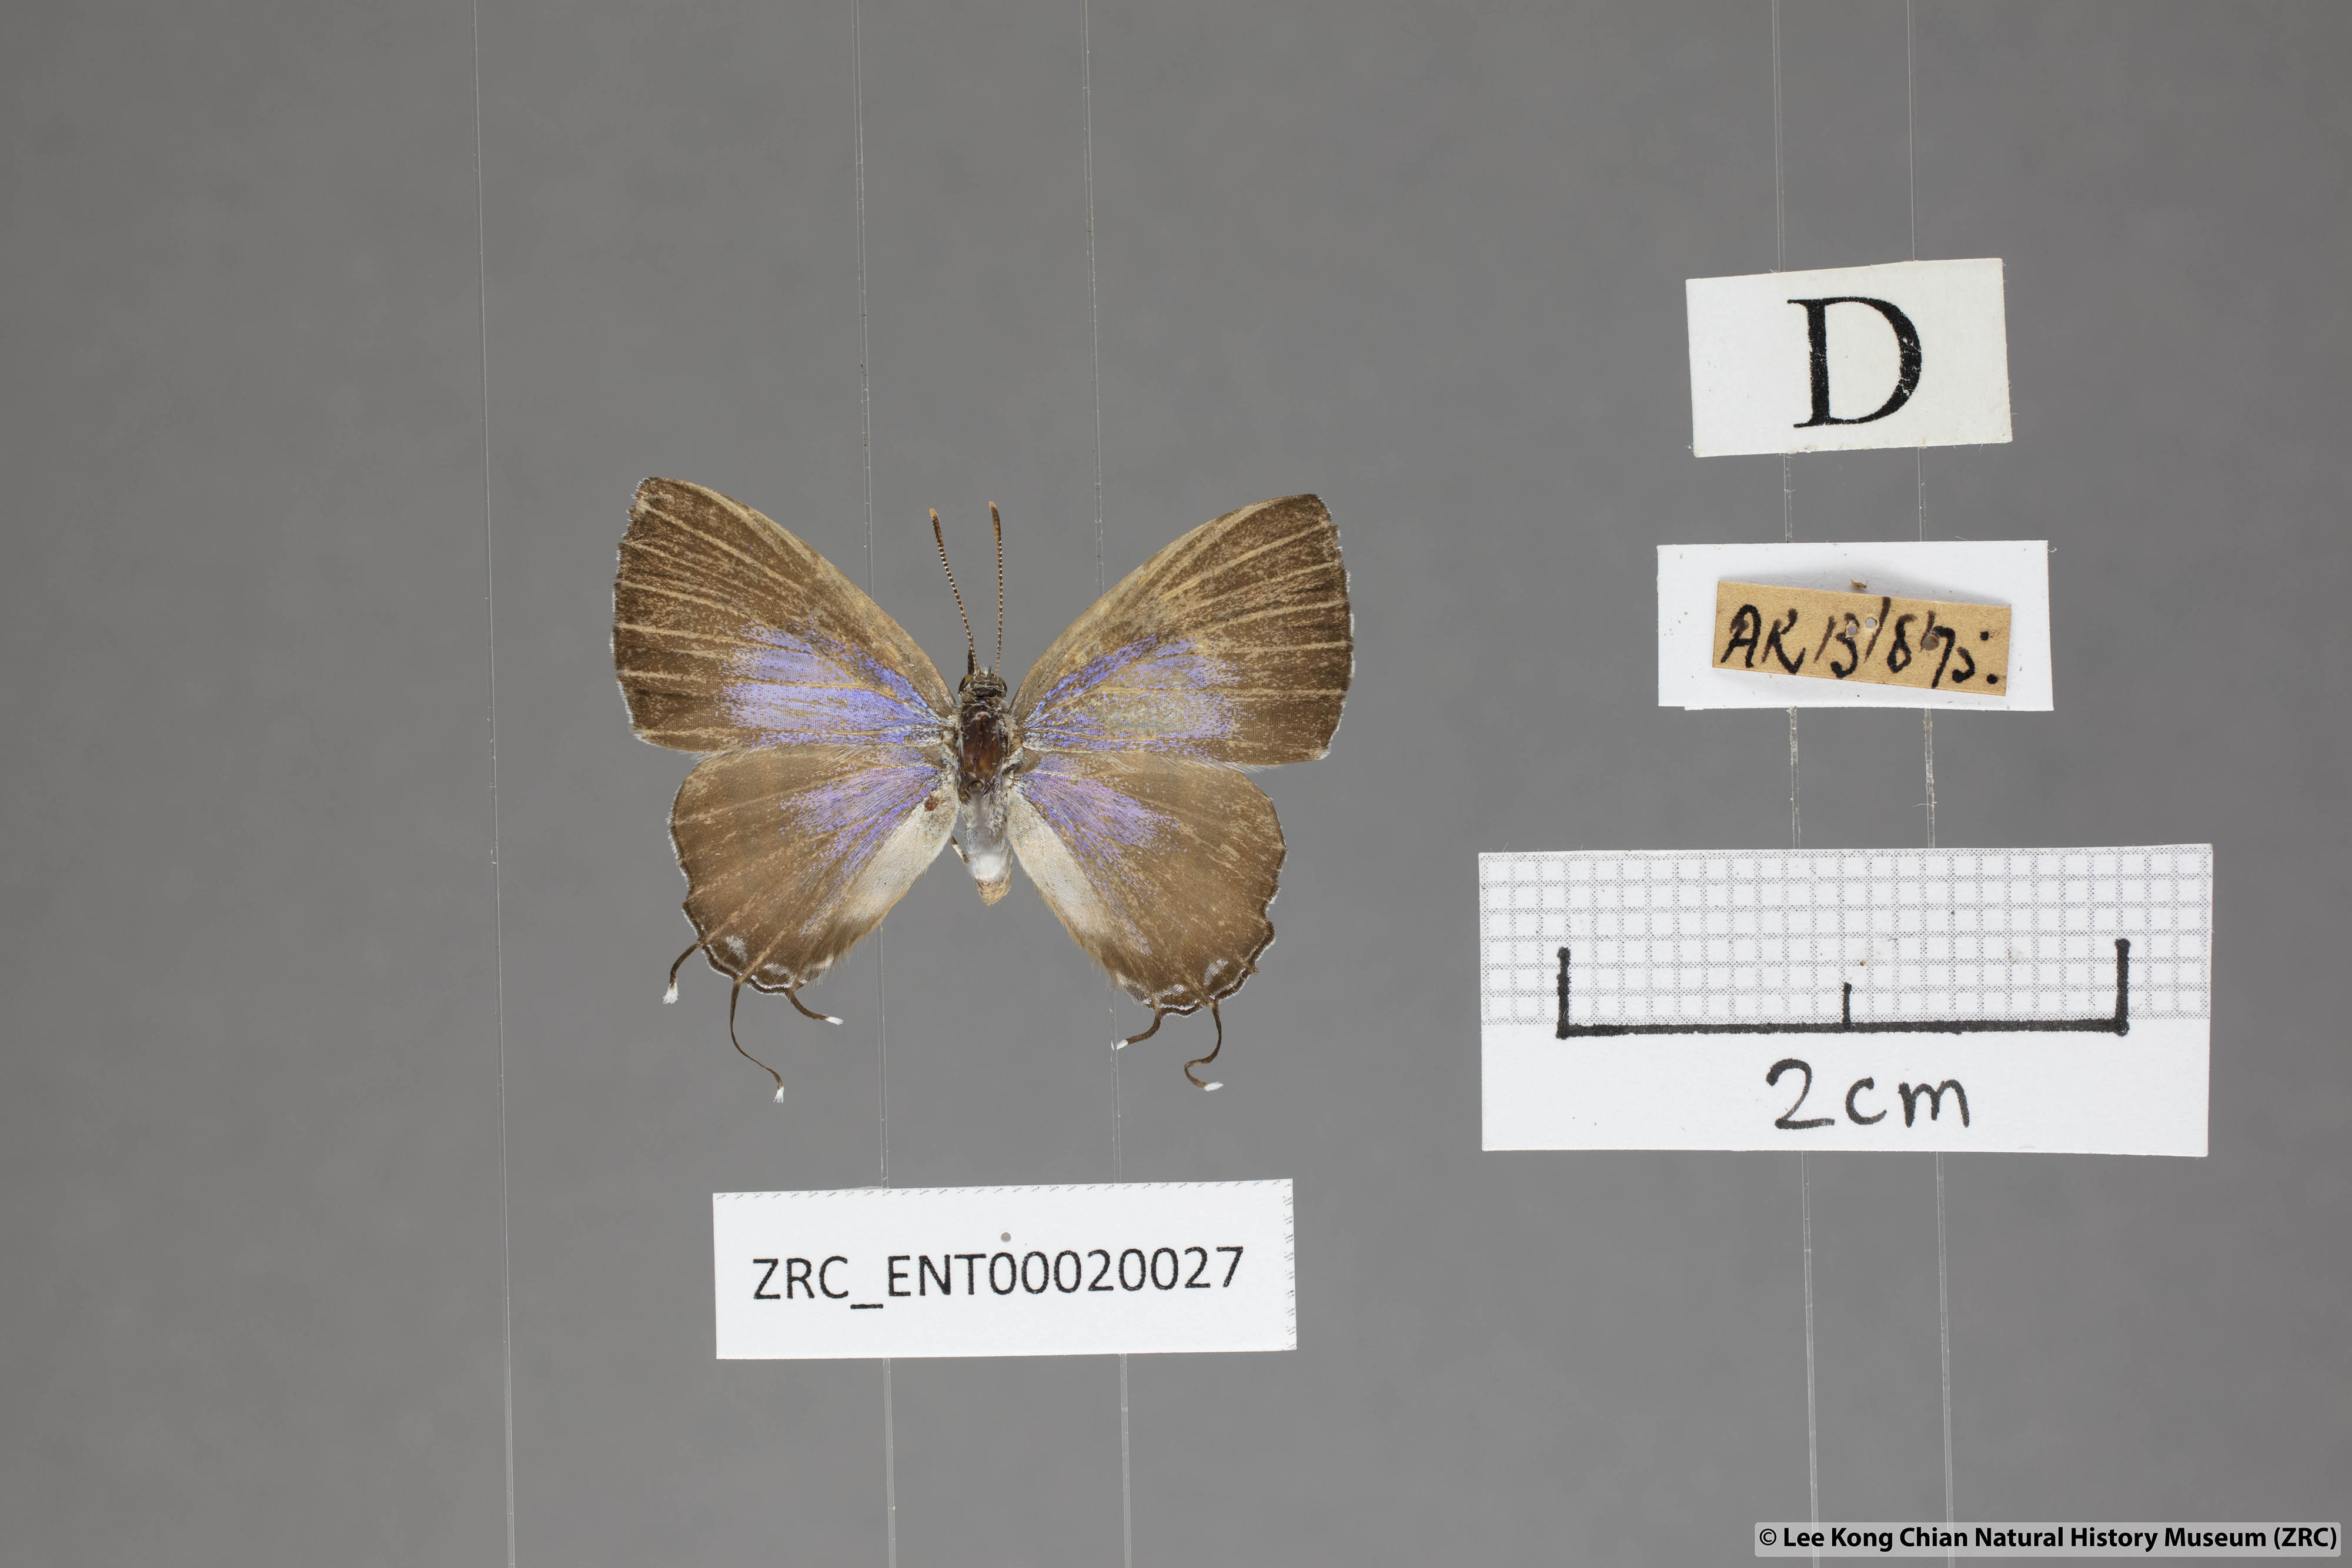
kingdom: Animalia
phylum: Arthropoda
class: Insecta
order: Lepidoptera
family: Lycaenidae
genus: Catapaecilma
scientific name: Catapaecilma subochrea
